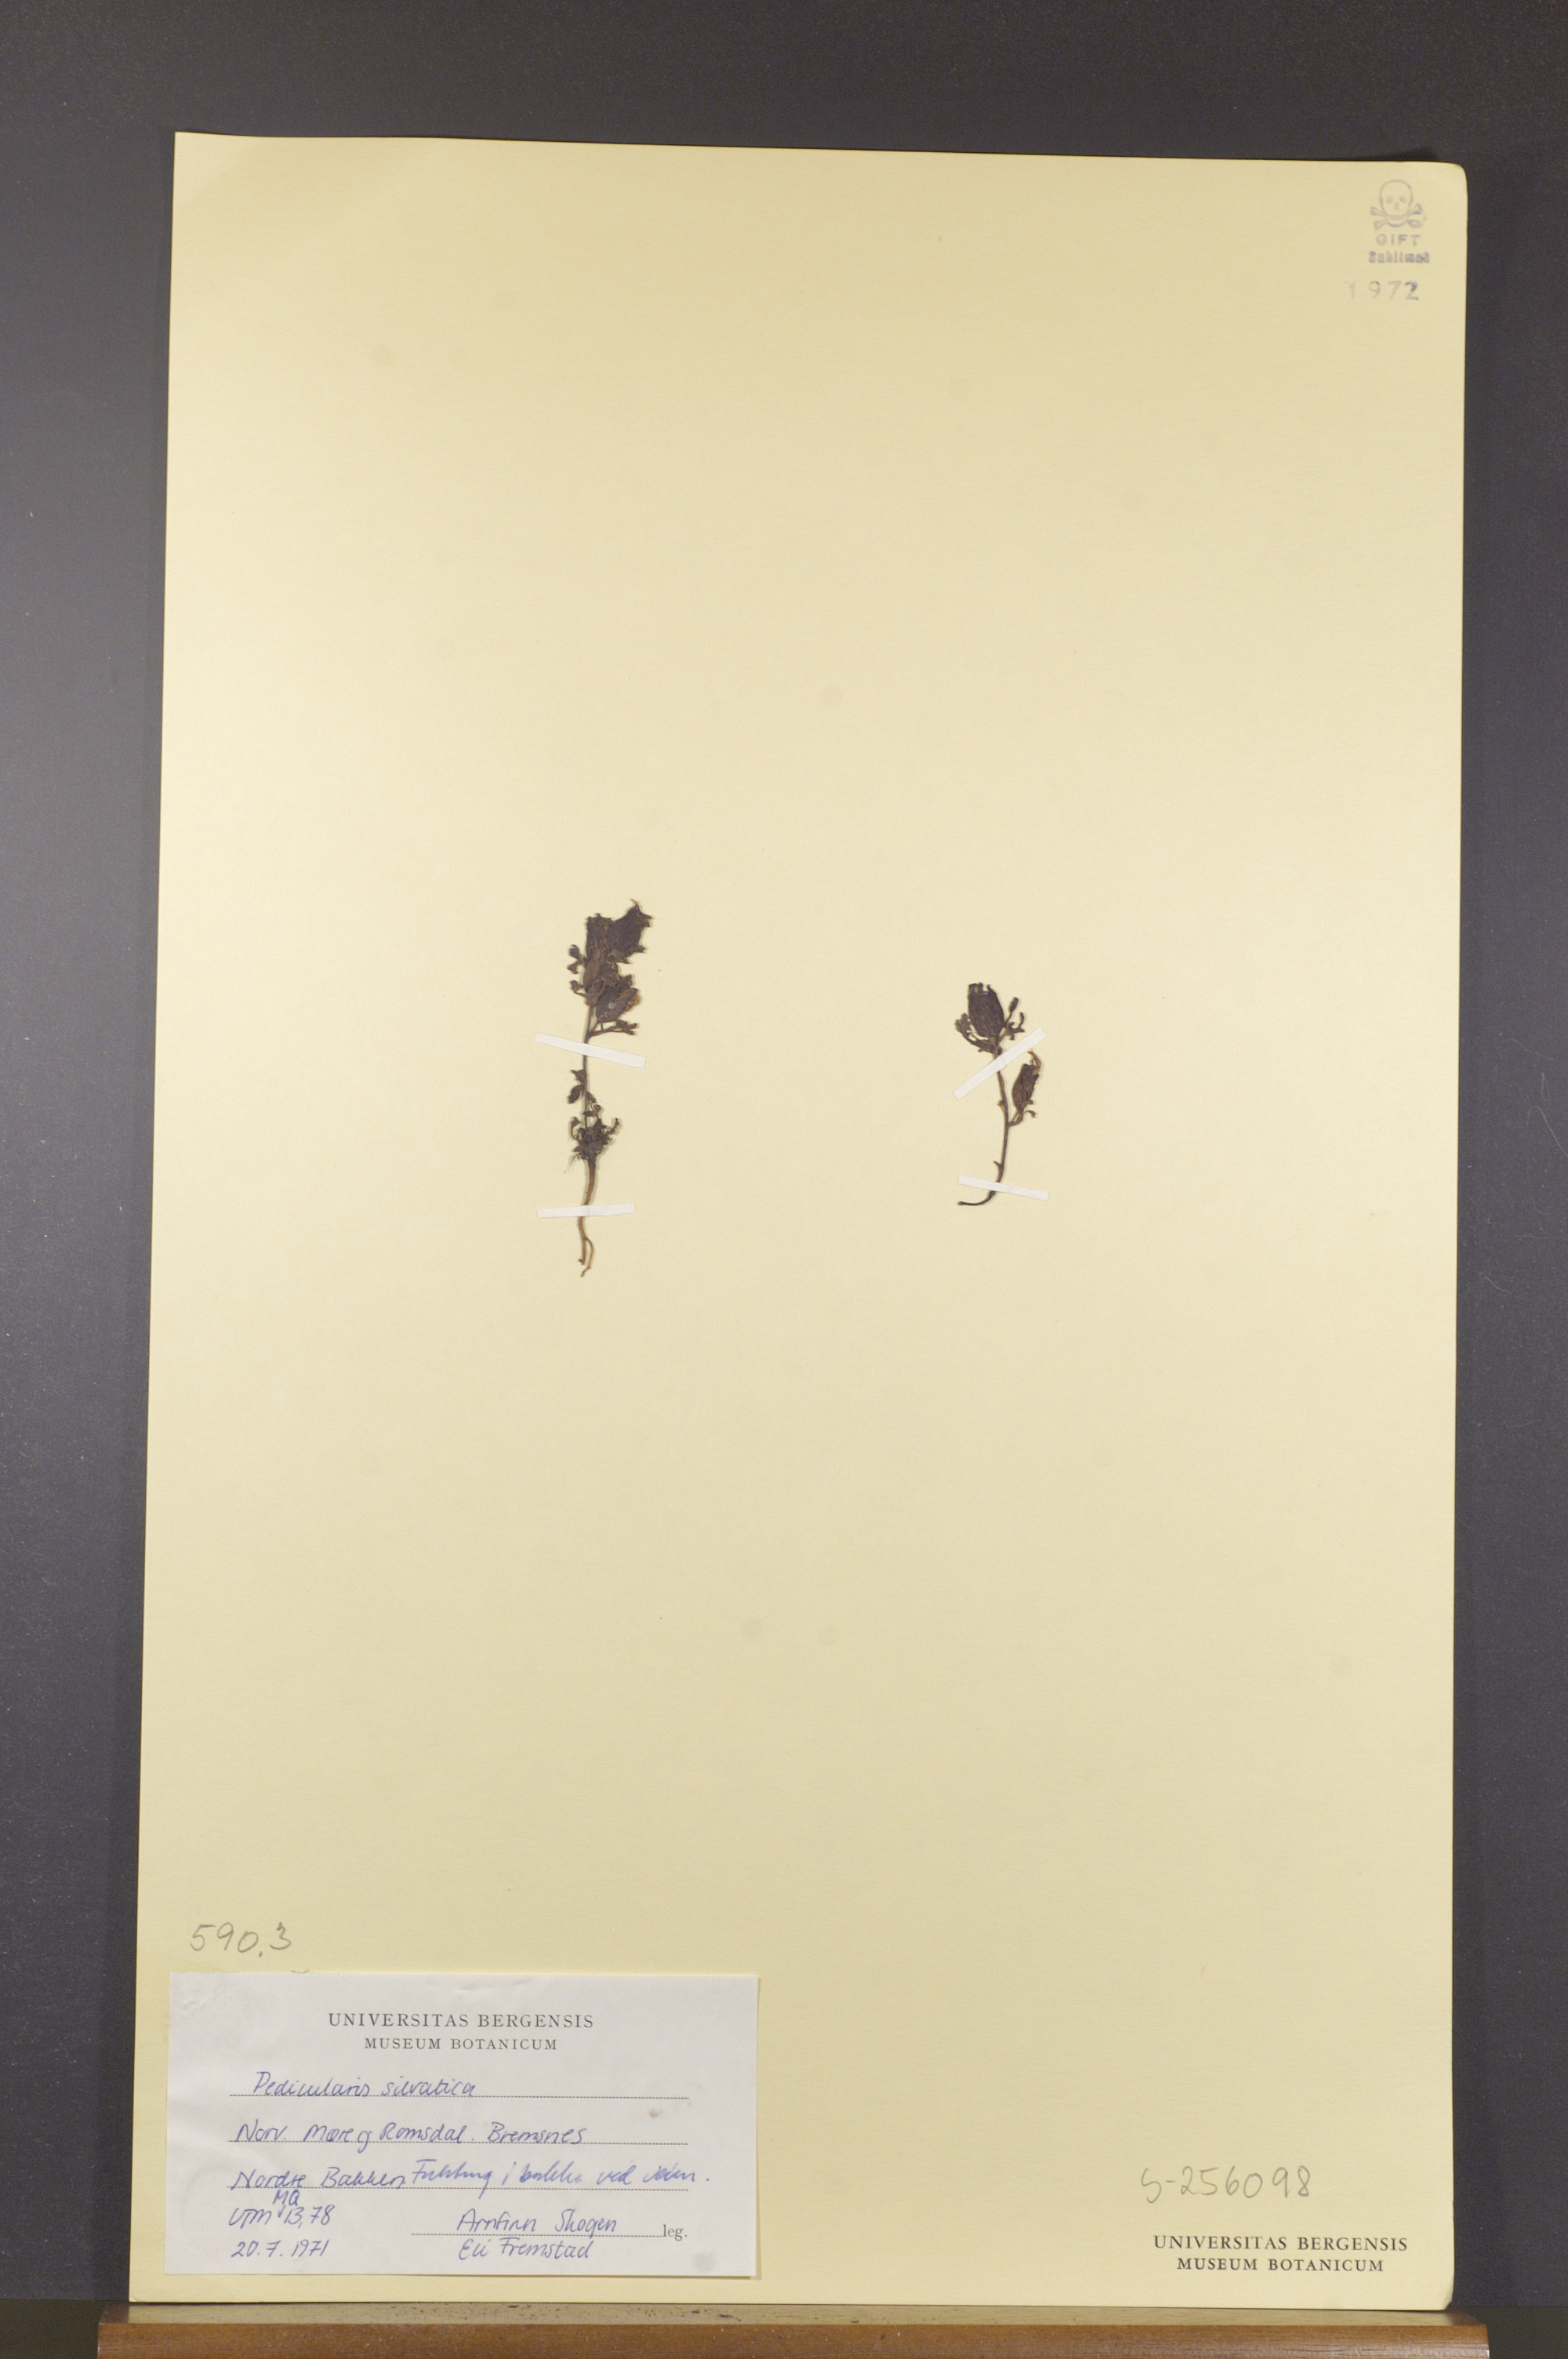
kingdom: Plantae
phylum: Tracheophyta
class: Magnoliopsida
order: Lamiales
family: Orobanchaceae
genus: Pedicularis
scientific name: Pedicularis sylvatica
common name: Lousewort
